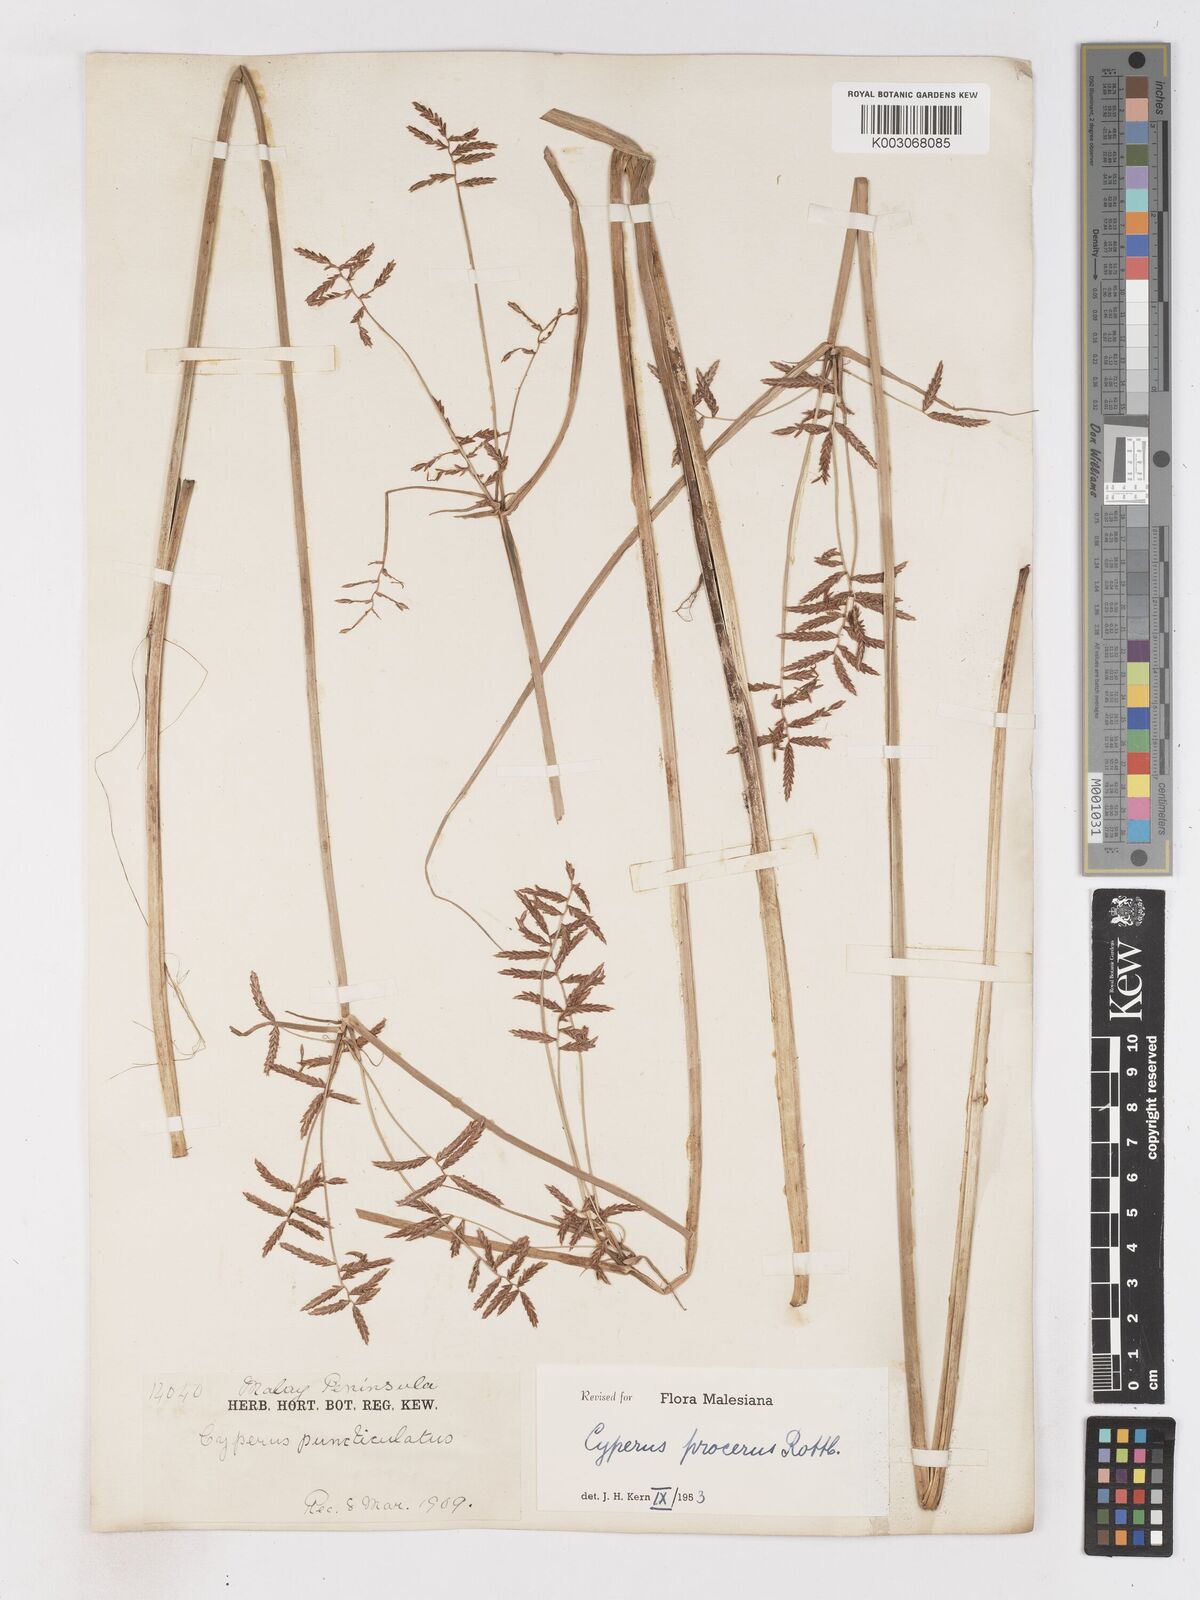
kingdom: Plantae
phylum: Tracheophyta
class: Liliopsida
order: Poales
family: Cyperaceae
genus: Cyperus
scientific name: Cyperus procerus
